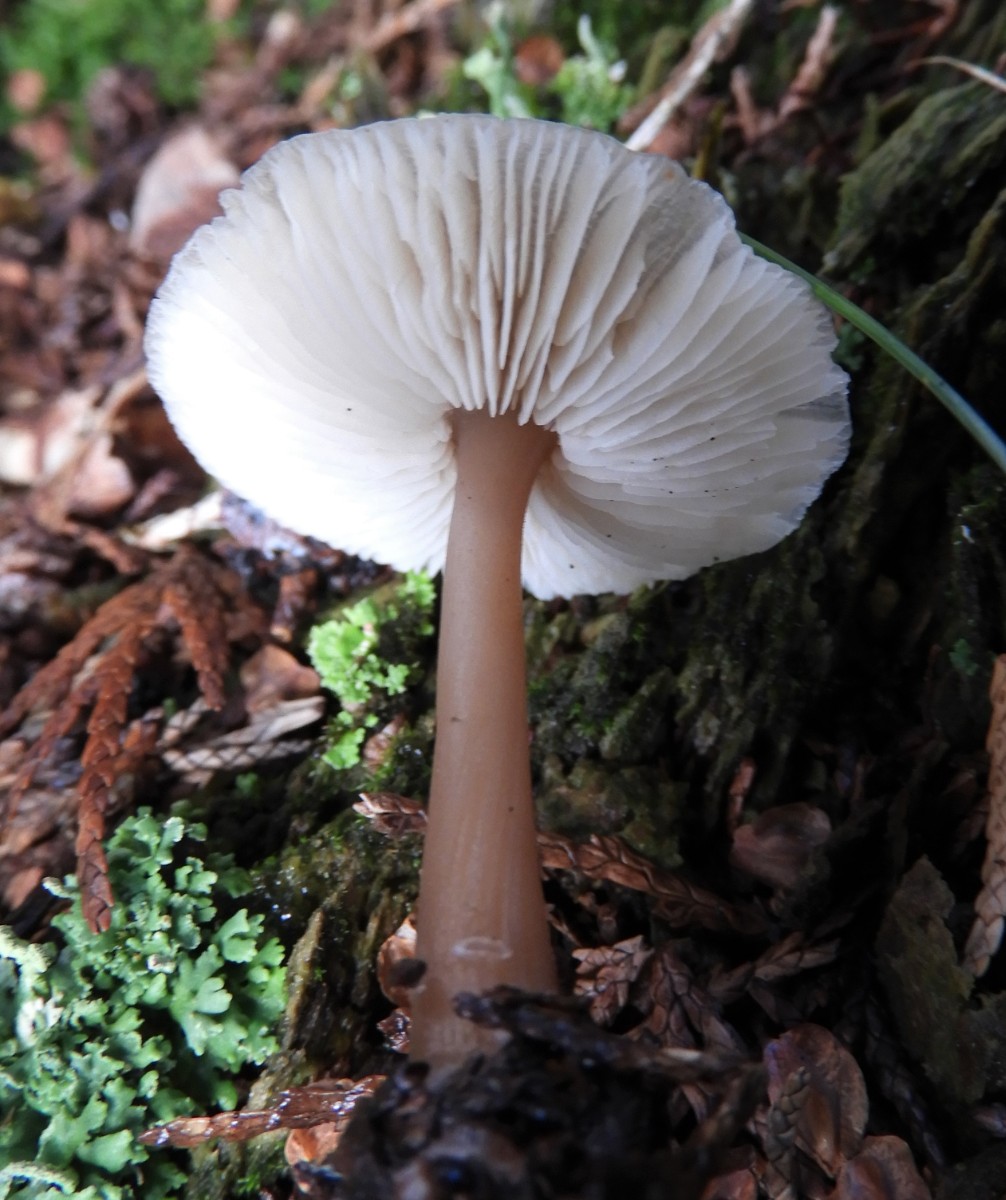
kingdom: Fungi
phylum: Basidiomycota
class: Agaricomycetes
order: Agaricales
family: Omphalotaceae
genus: Rhodocollybia
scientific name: Rhodocollybia asema
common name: horngrå fladhat
